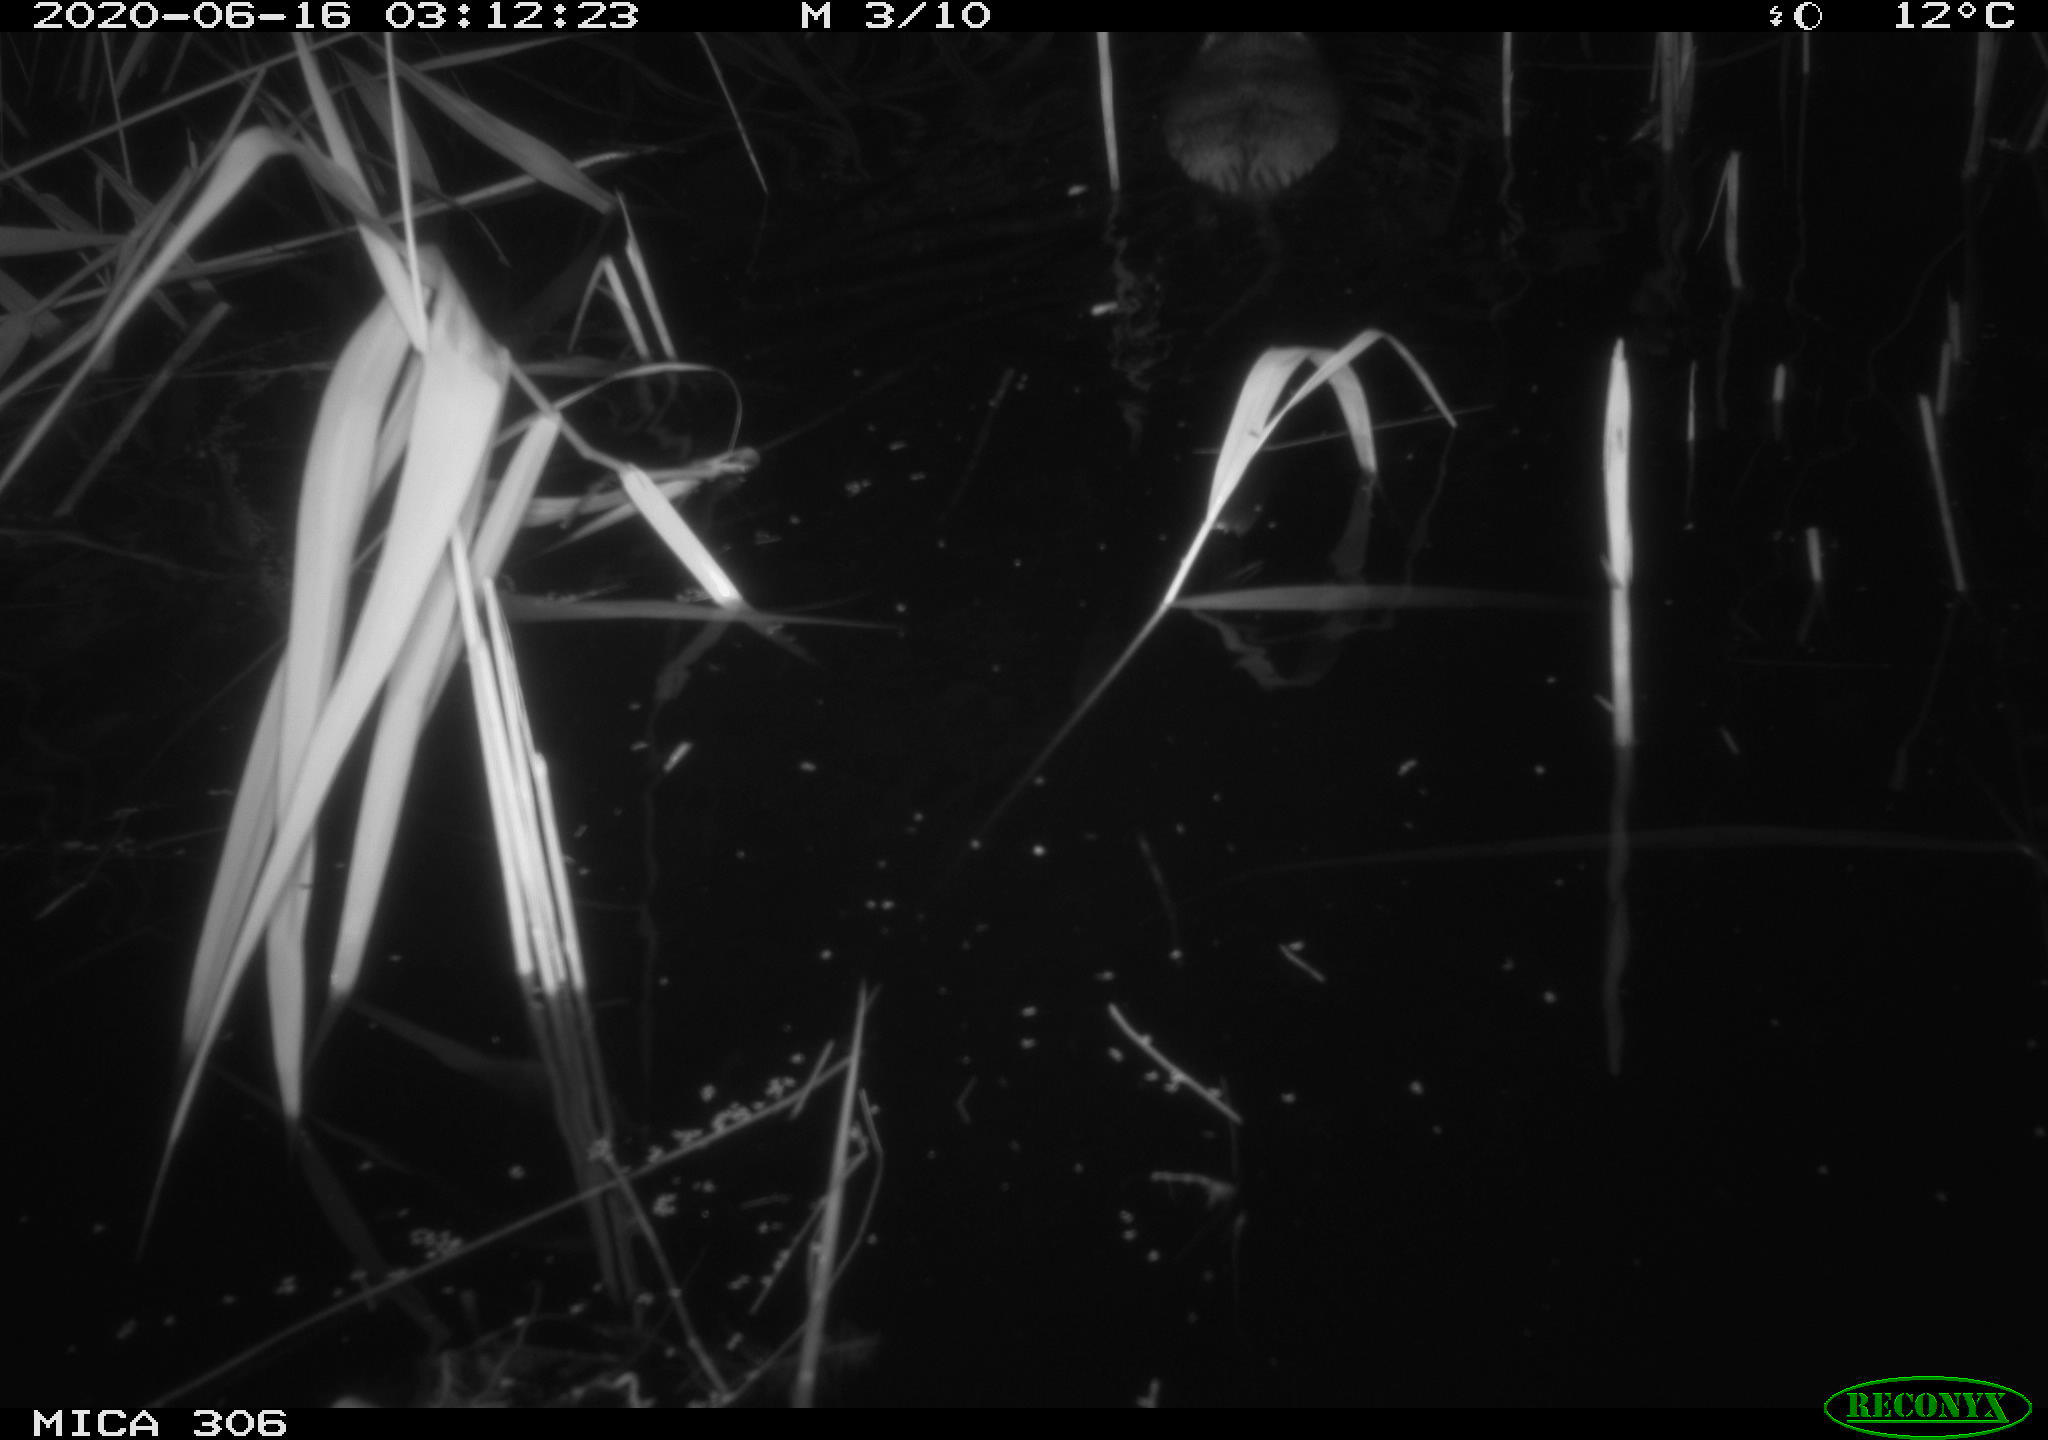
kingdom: Animalia
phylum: Chordata
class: Mammalia
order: Rodentia
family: Muridae
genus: Rattus
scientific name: Rattus norvegicus
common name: Brown rat
